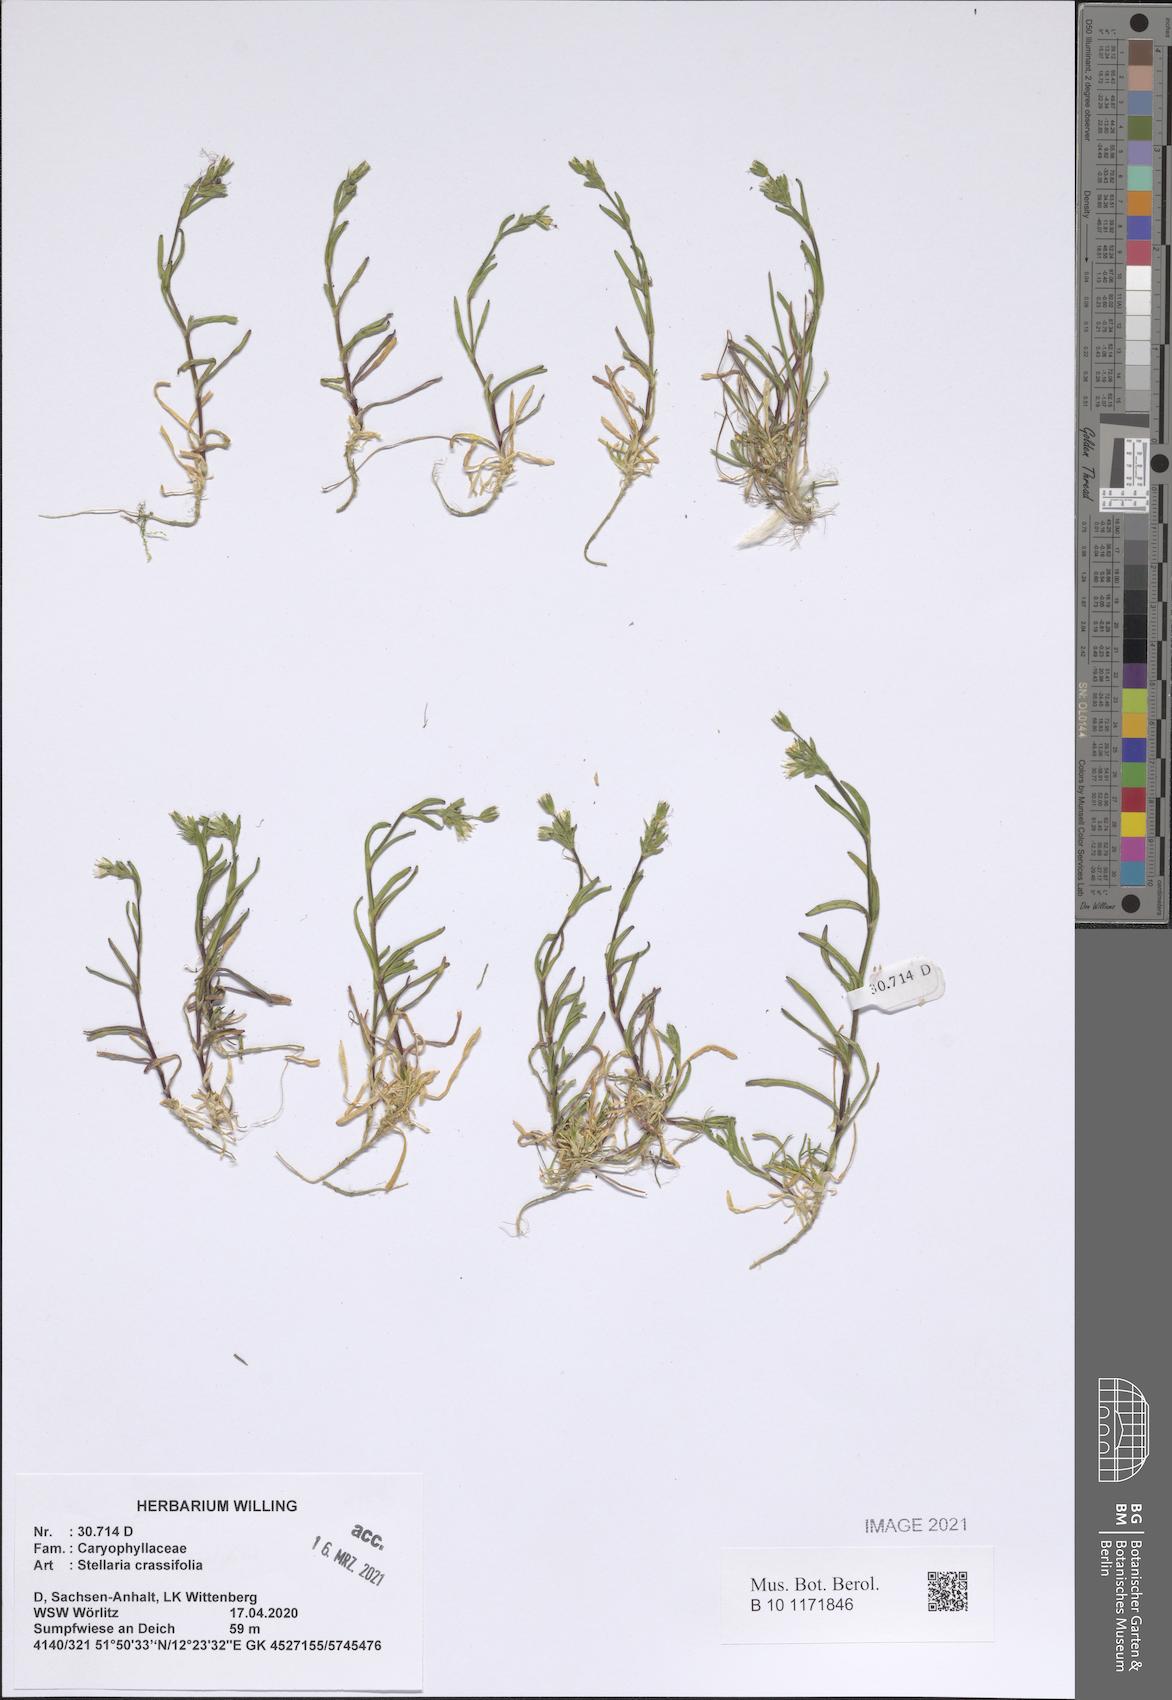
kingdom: Plantae
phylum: Tracheophyta
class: Magnoliopsida
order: Caryophyllales
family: Caryophyllaceae
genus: Dichodon
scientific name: Dichodon viscidum
